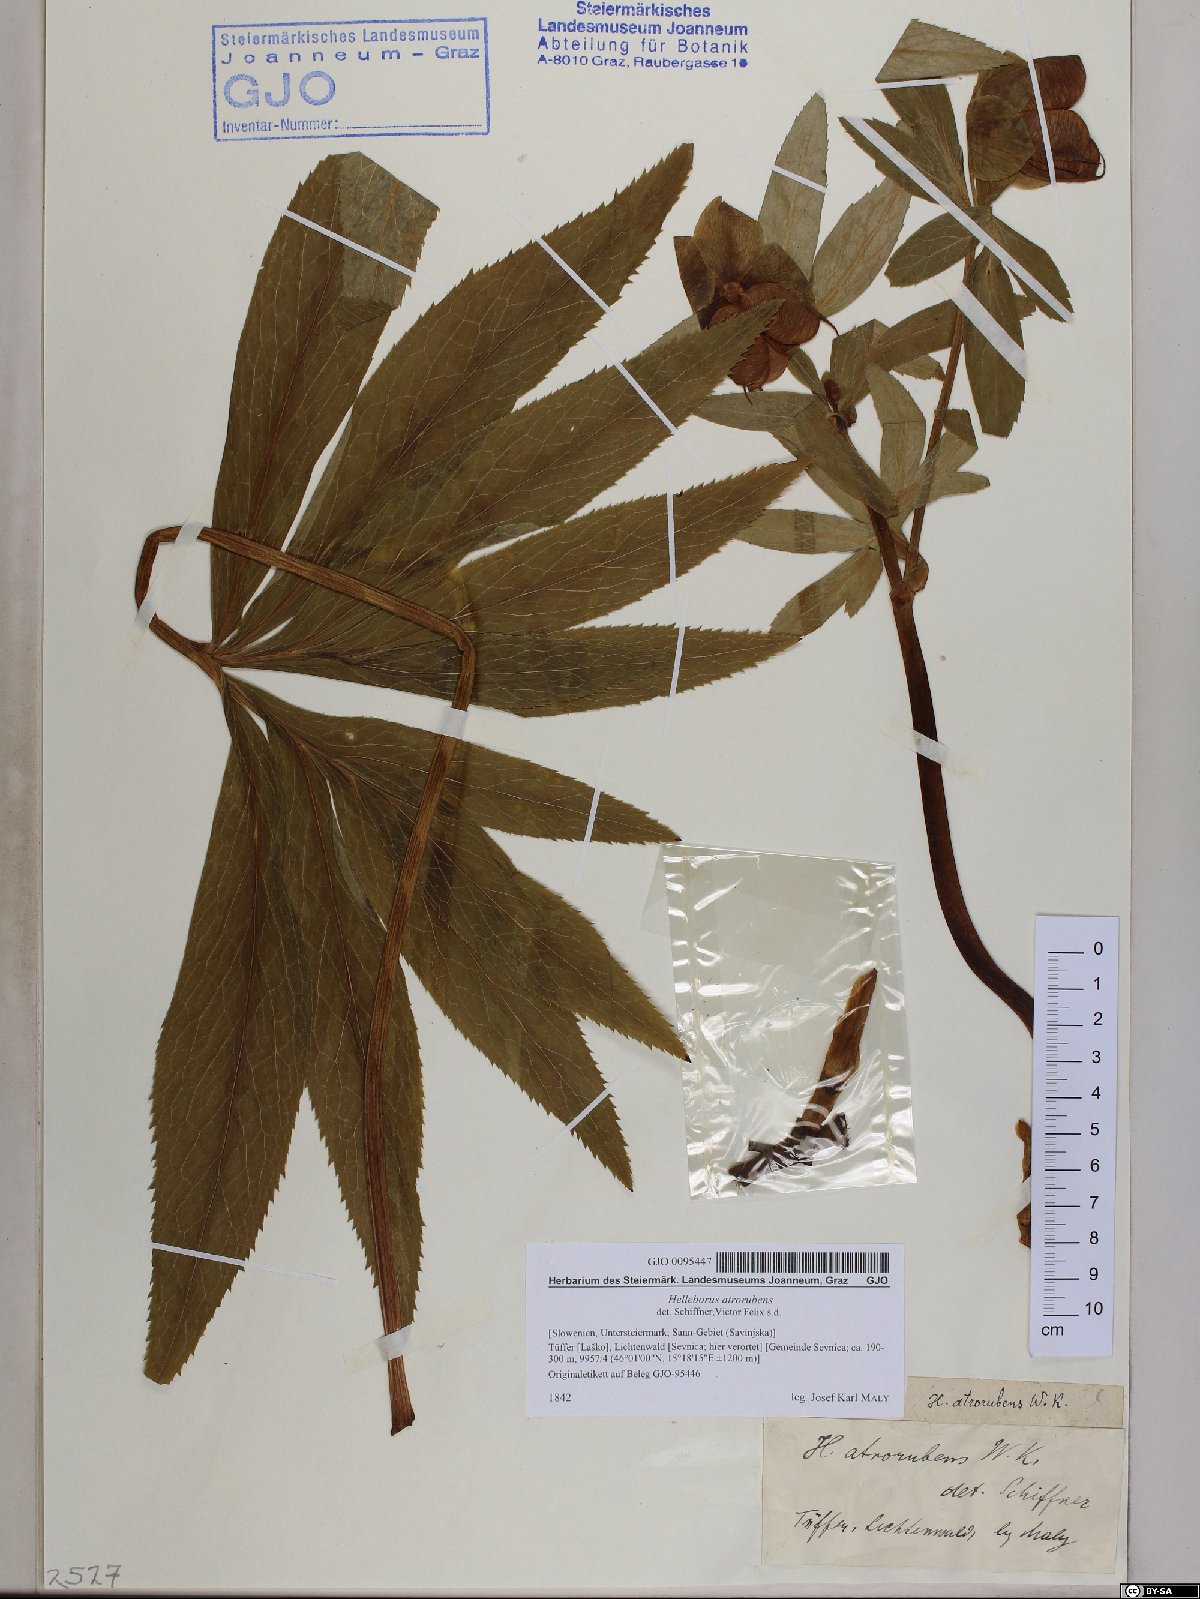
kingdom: Plantae
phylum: Tracheophyta
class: Magnoliopsida
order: Ranunculales
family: Ranunculaceae
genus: Helleborus
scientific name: Helleborus dumetorum
